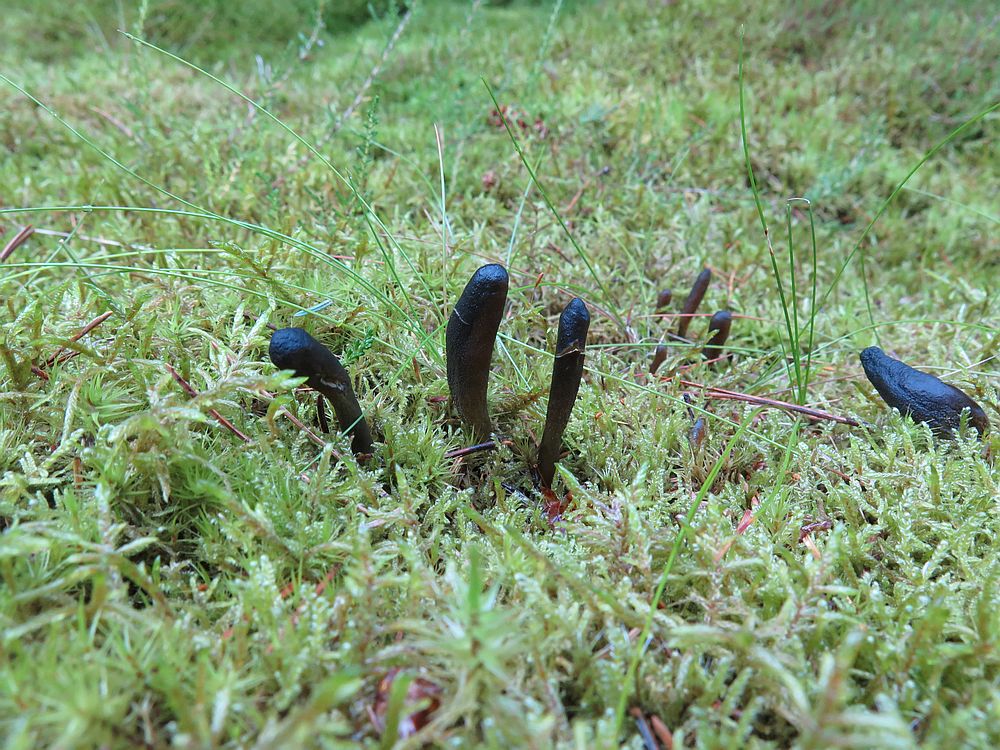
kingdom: Fungi
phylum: Ascomycota
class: Sordariomycetes
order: Hypocreales
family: Ophiocordycipitaceae
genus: Tolypocladium
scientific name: Tolypocladium ophioglossoides
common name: slank snyltekølle
